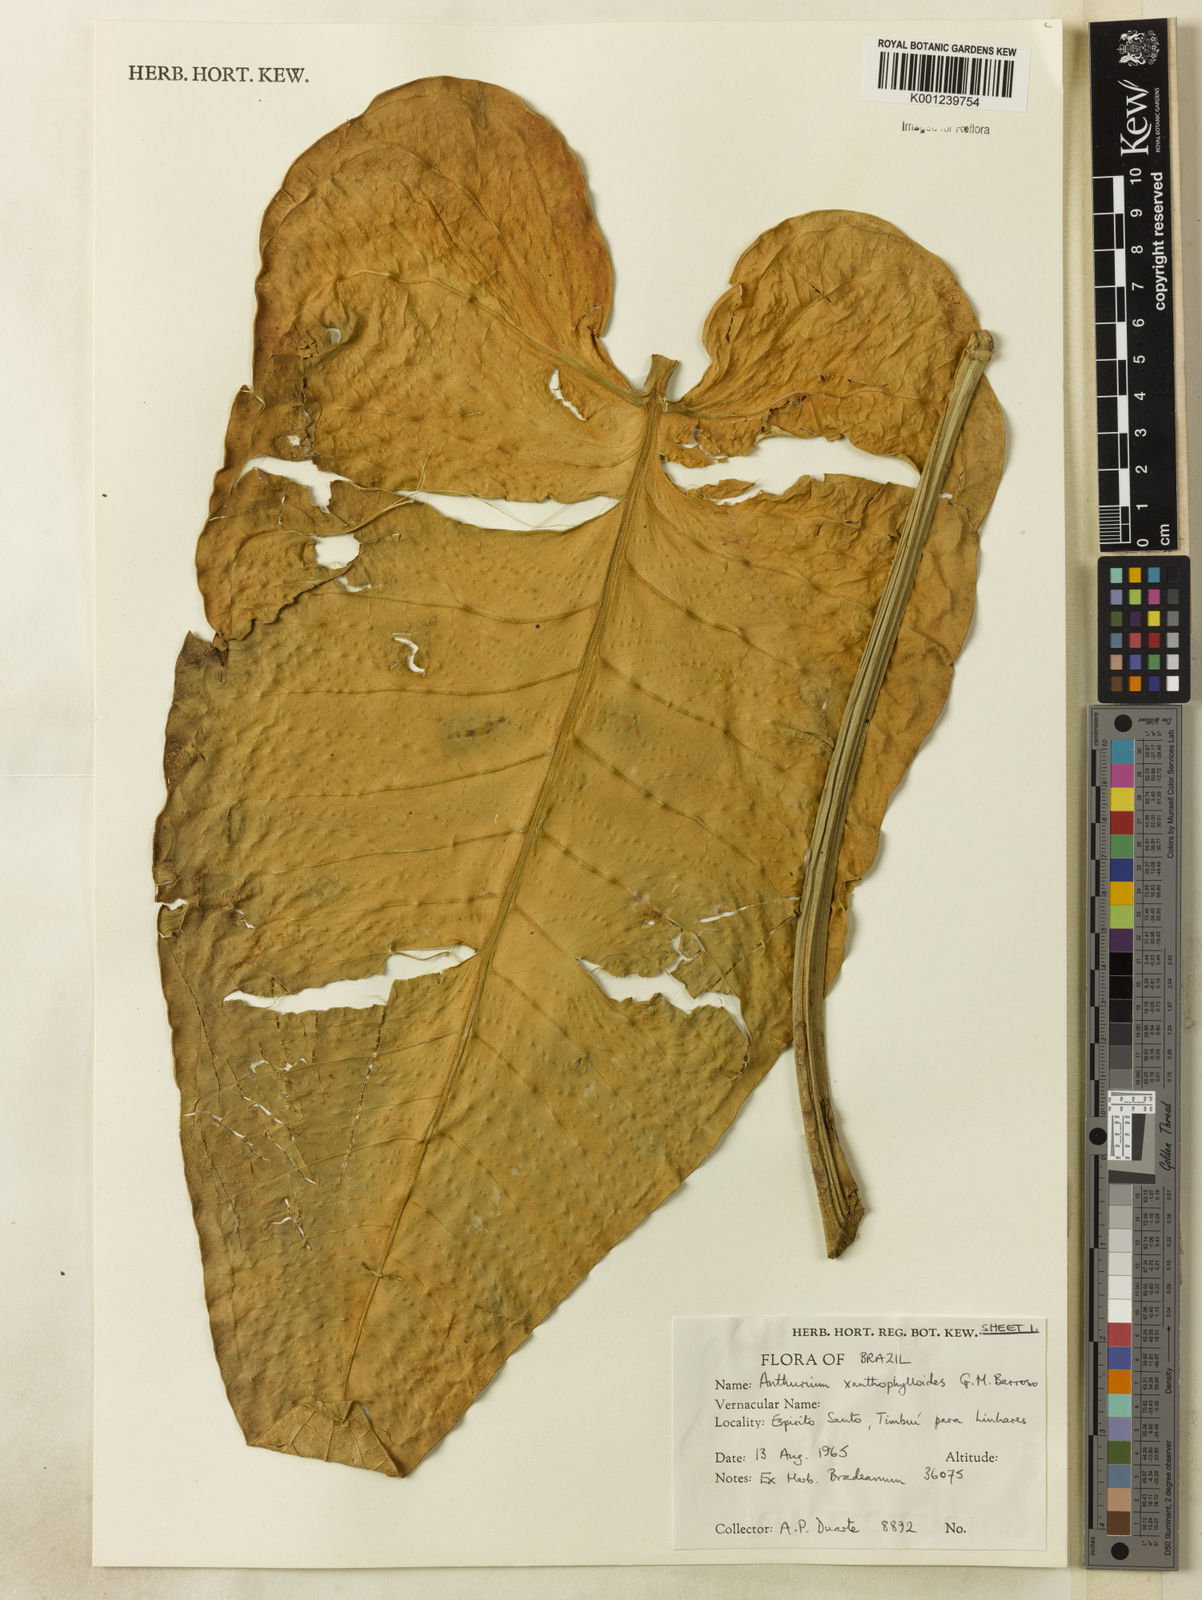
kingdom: Plantae
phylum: Tracheophyta
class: Liliopsida
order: Alismatales
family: Araceae
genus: Anthurium
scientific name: Anthurium xanthophylloides
